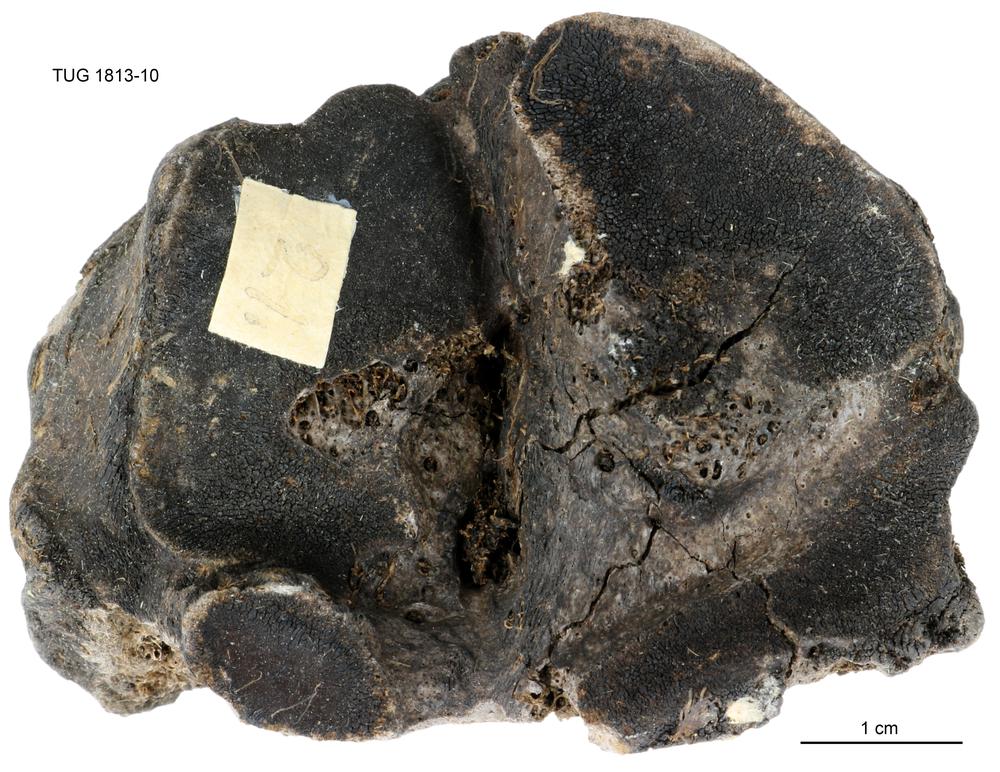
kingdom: Animalia
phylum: Chordata
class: Mammalia
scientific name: Mammalia
